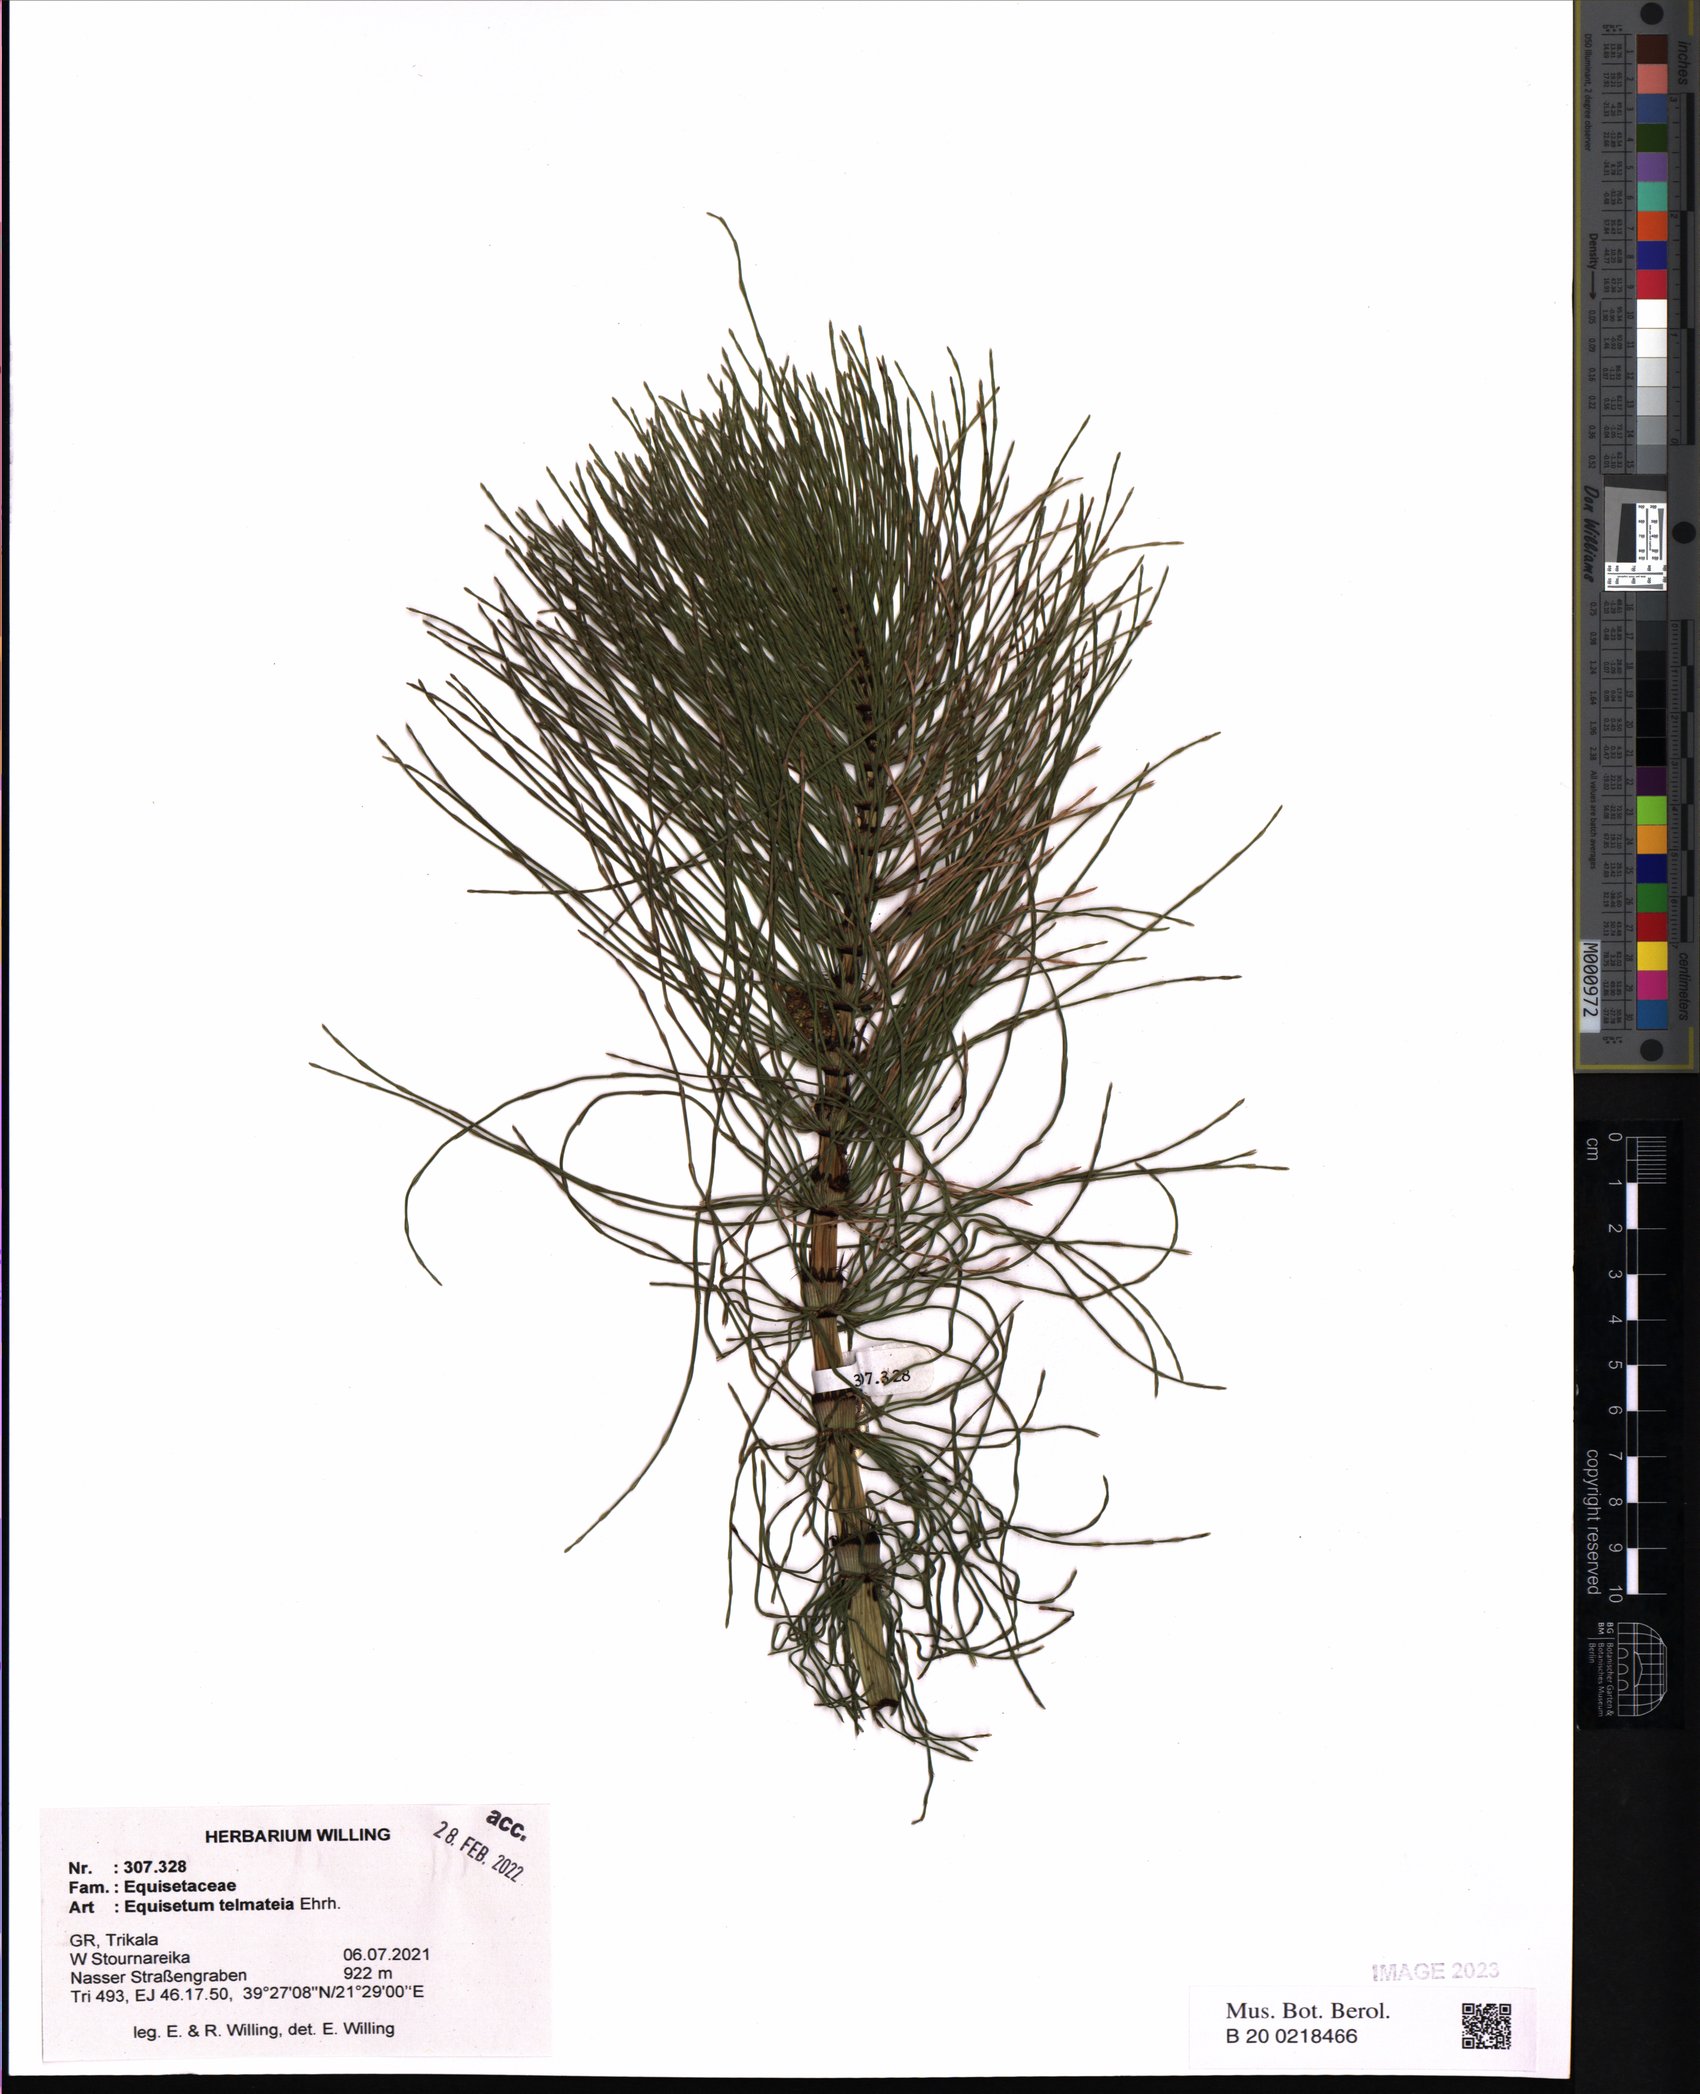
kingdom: Plantae
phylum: Tracheophyta
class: Polypodiopsida
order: Equisetales
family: Equisetaceae
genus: Equisetum
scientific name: Equisetum telmateia
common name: Great horsetail
